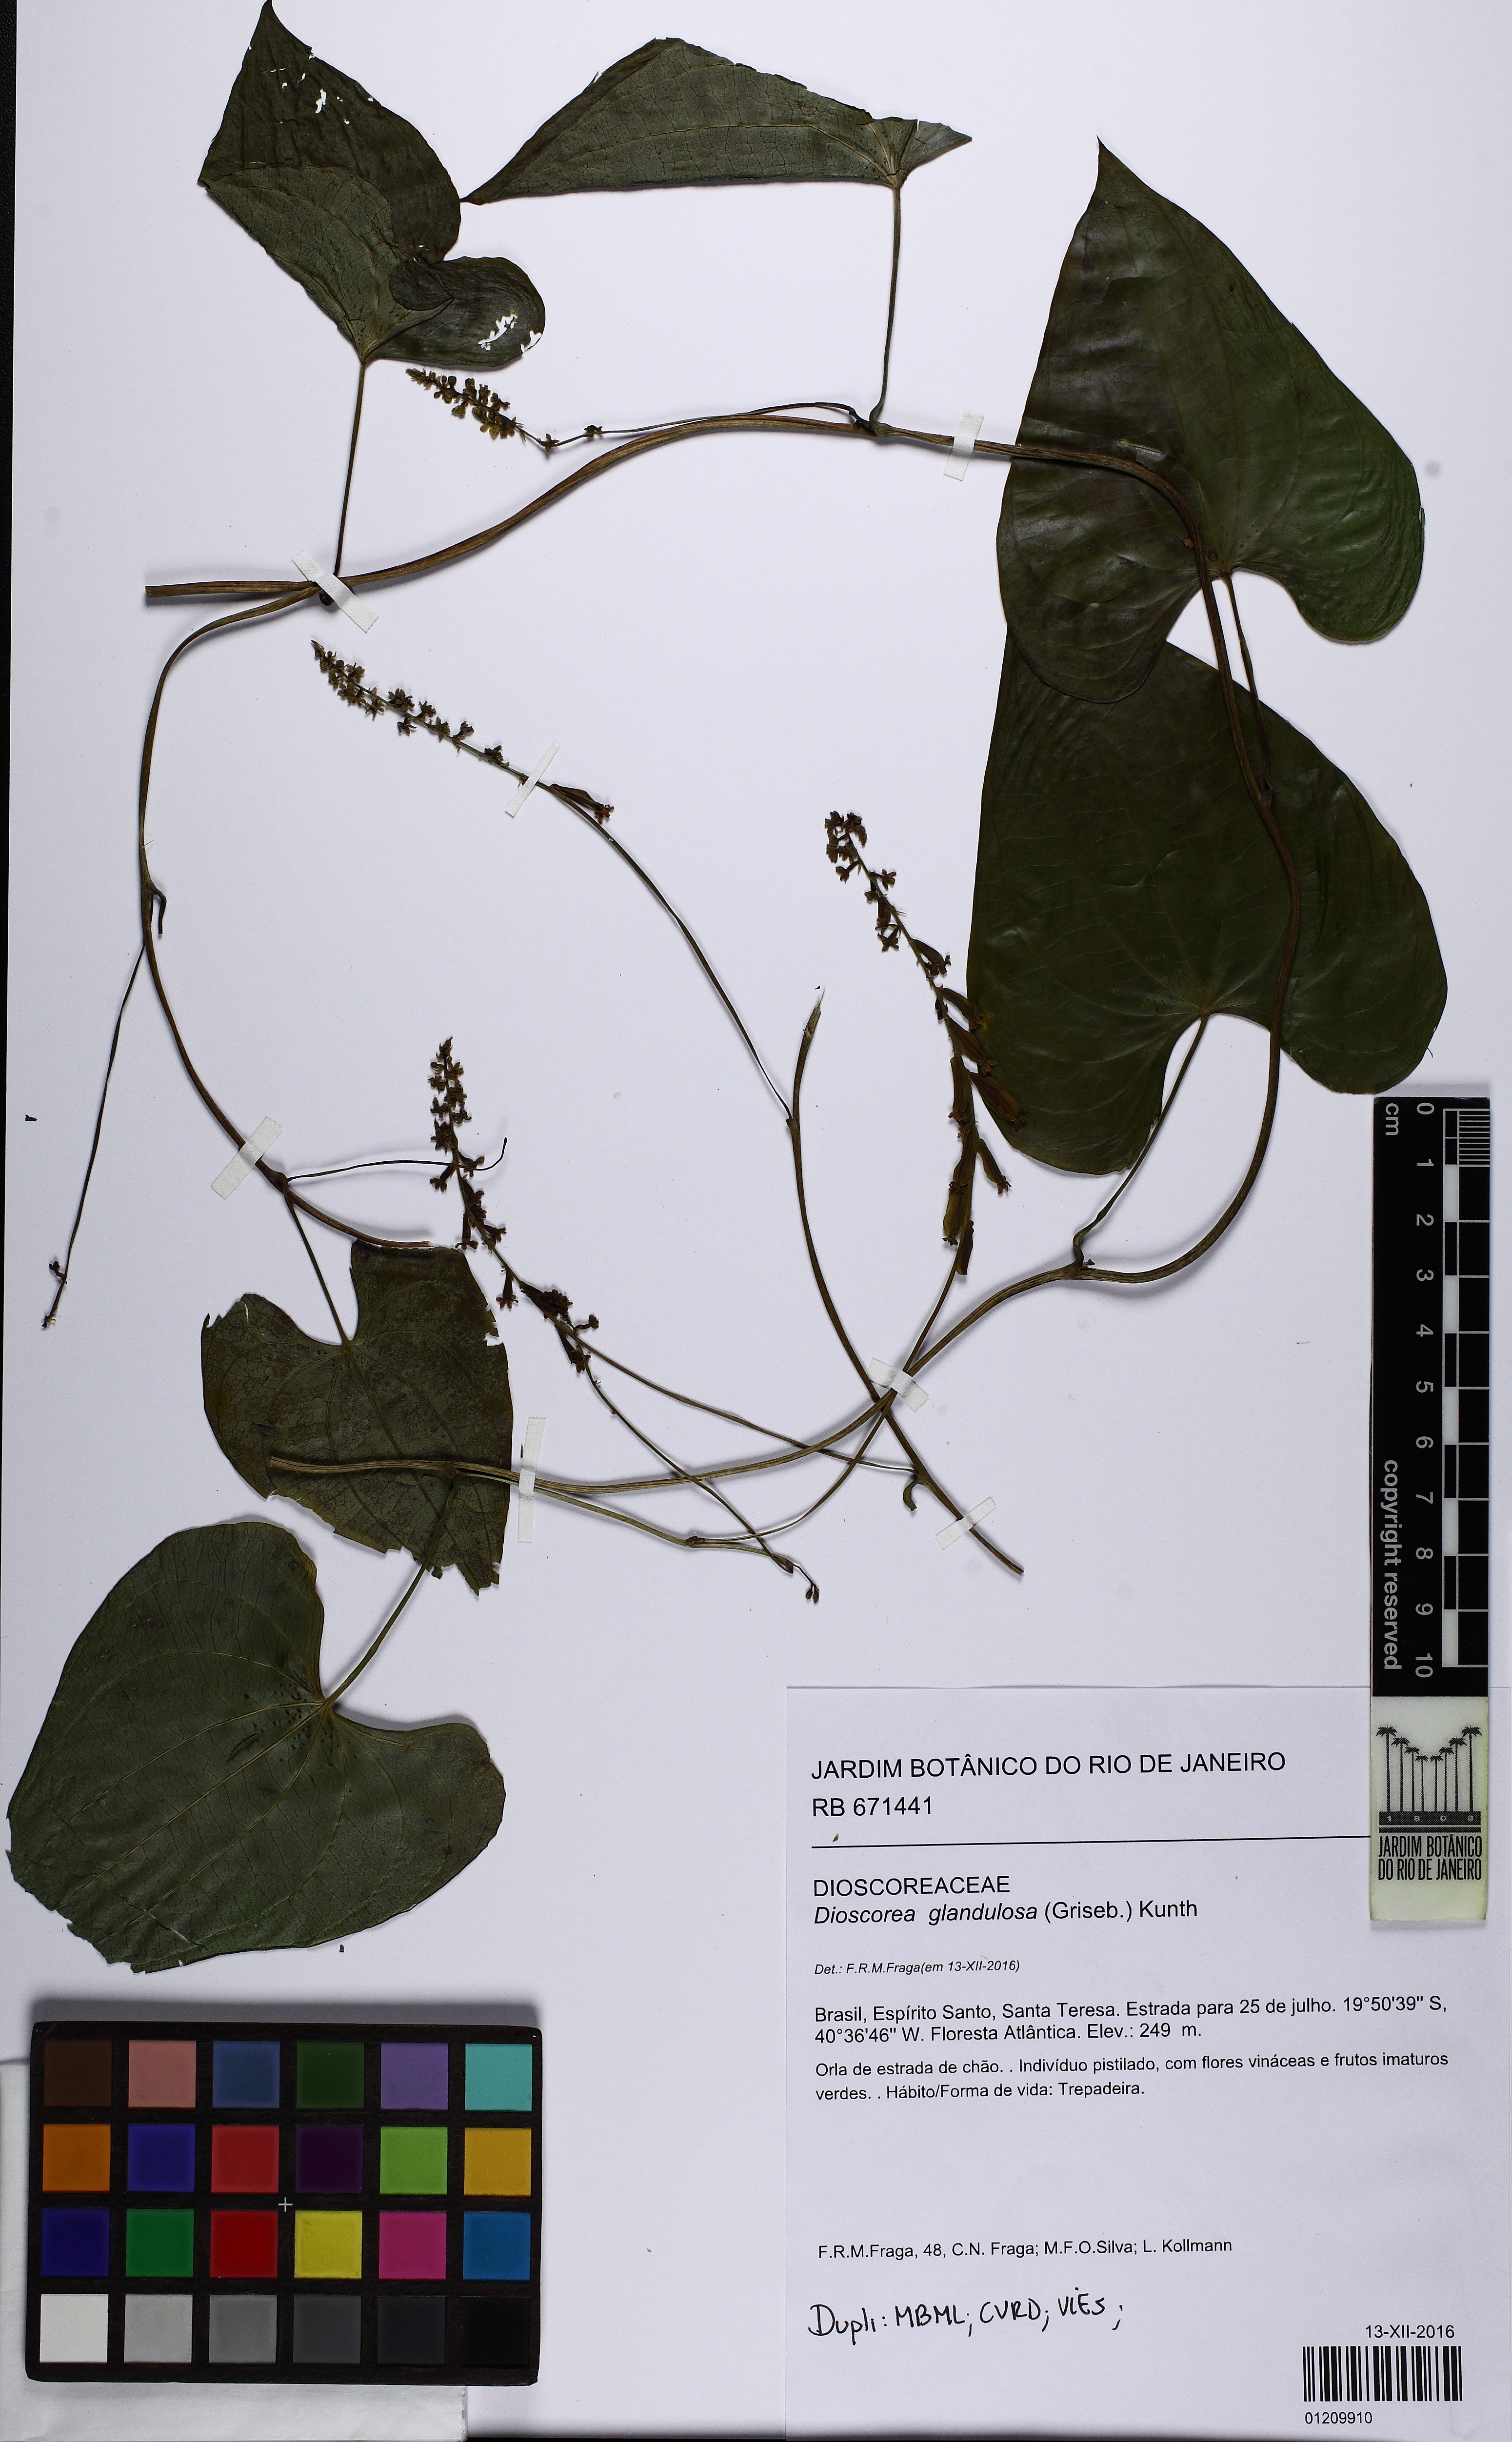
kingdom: Plantae
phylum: Tracheophyta
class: Liliopsida
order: Dioscoreales
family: Dioscoreaceae
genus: Dioscorea
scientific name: Dioscorea glandulosa
